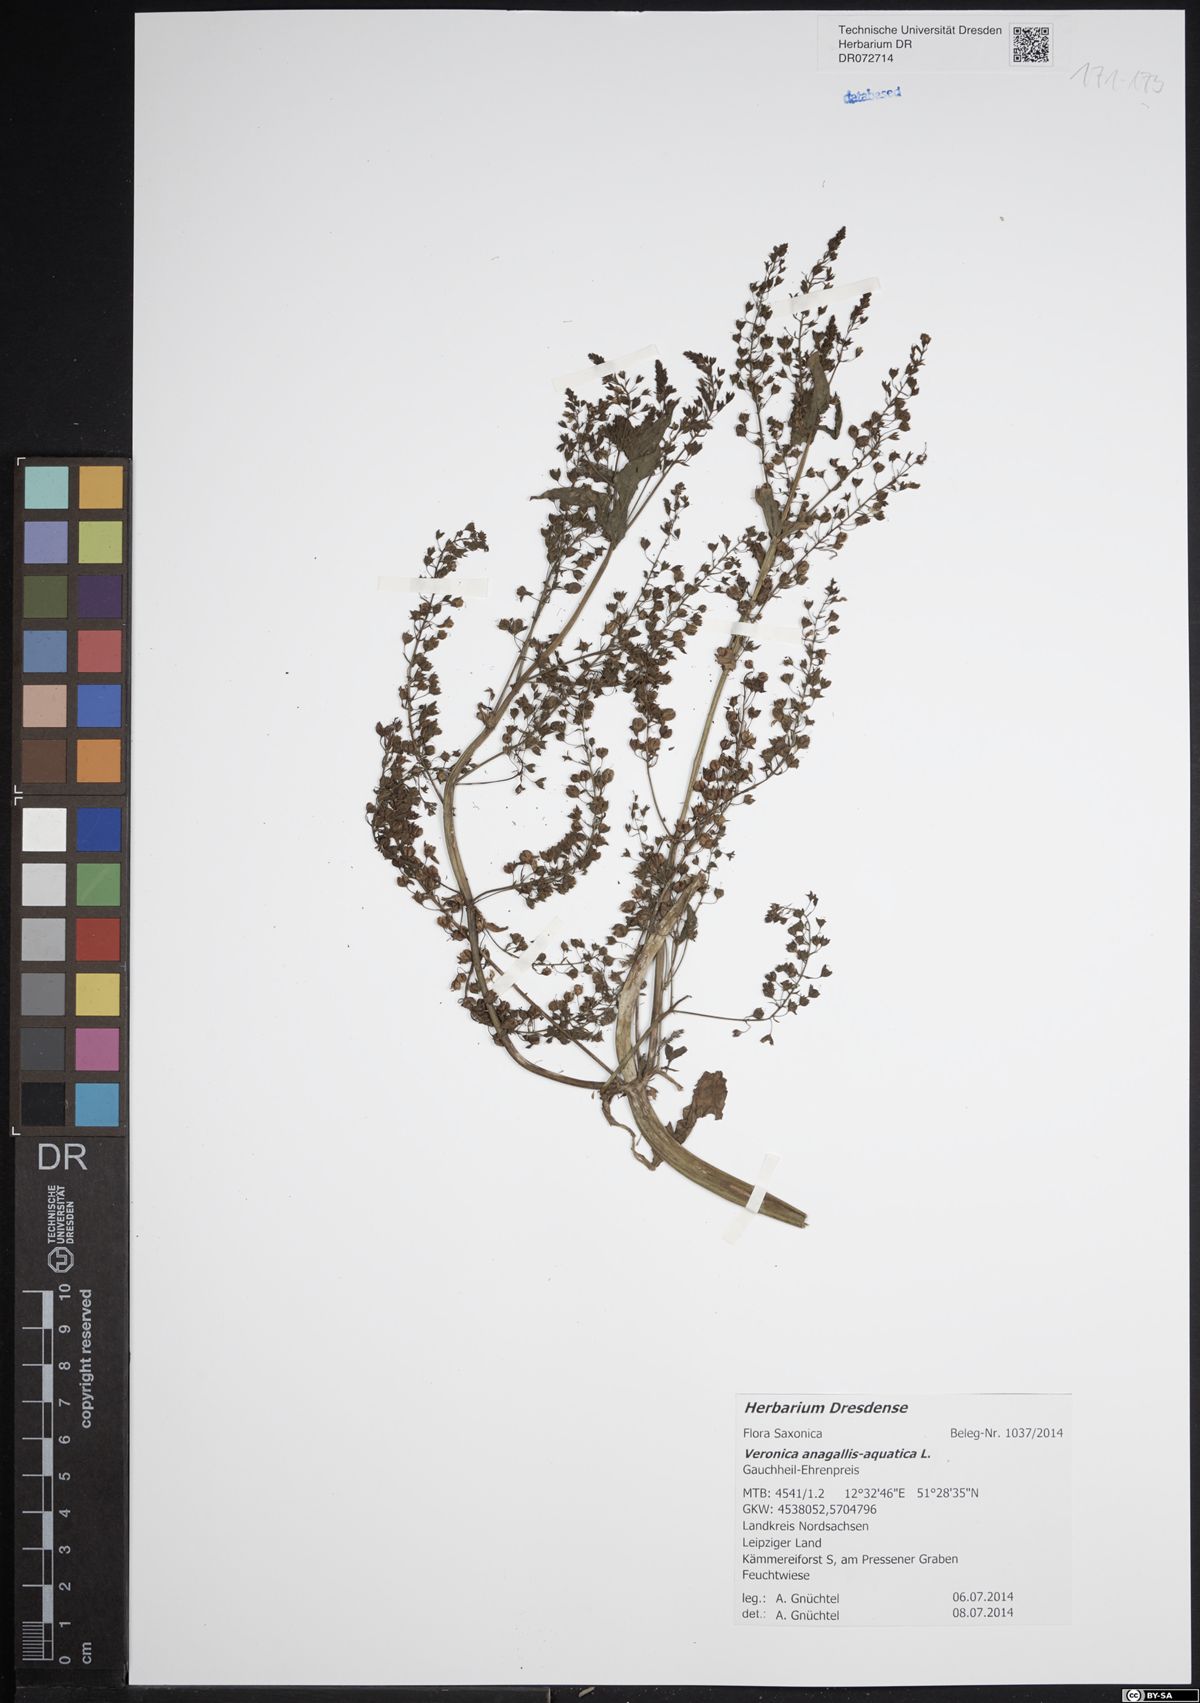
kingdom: Plantae
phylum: Tracheophyta
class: Magnoliopsida
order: Lamiales
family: Plantaginaceae
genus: Veronica
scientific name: Veronica anagallis-aquatica
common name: Water speedwell
